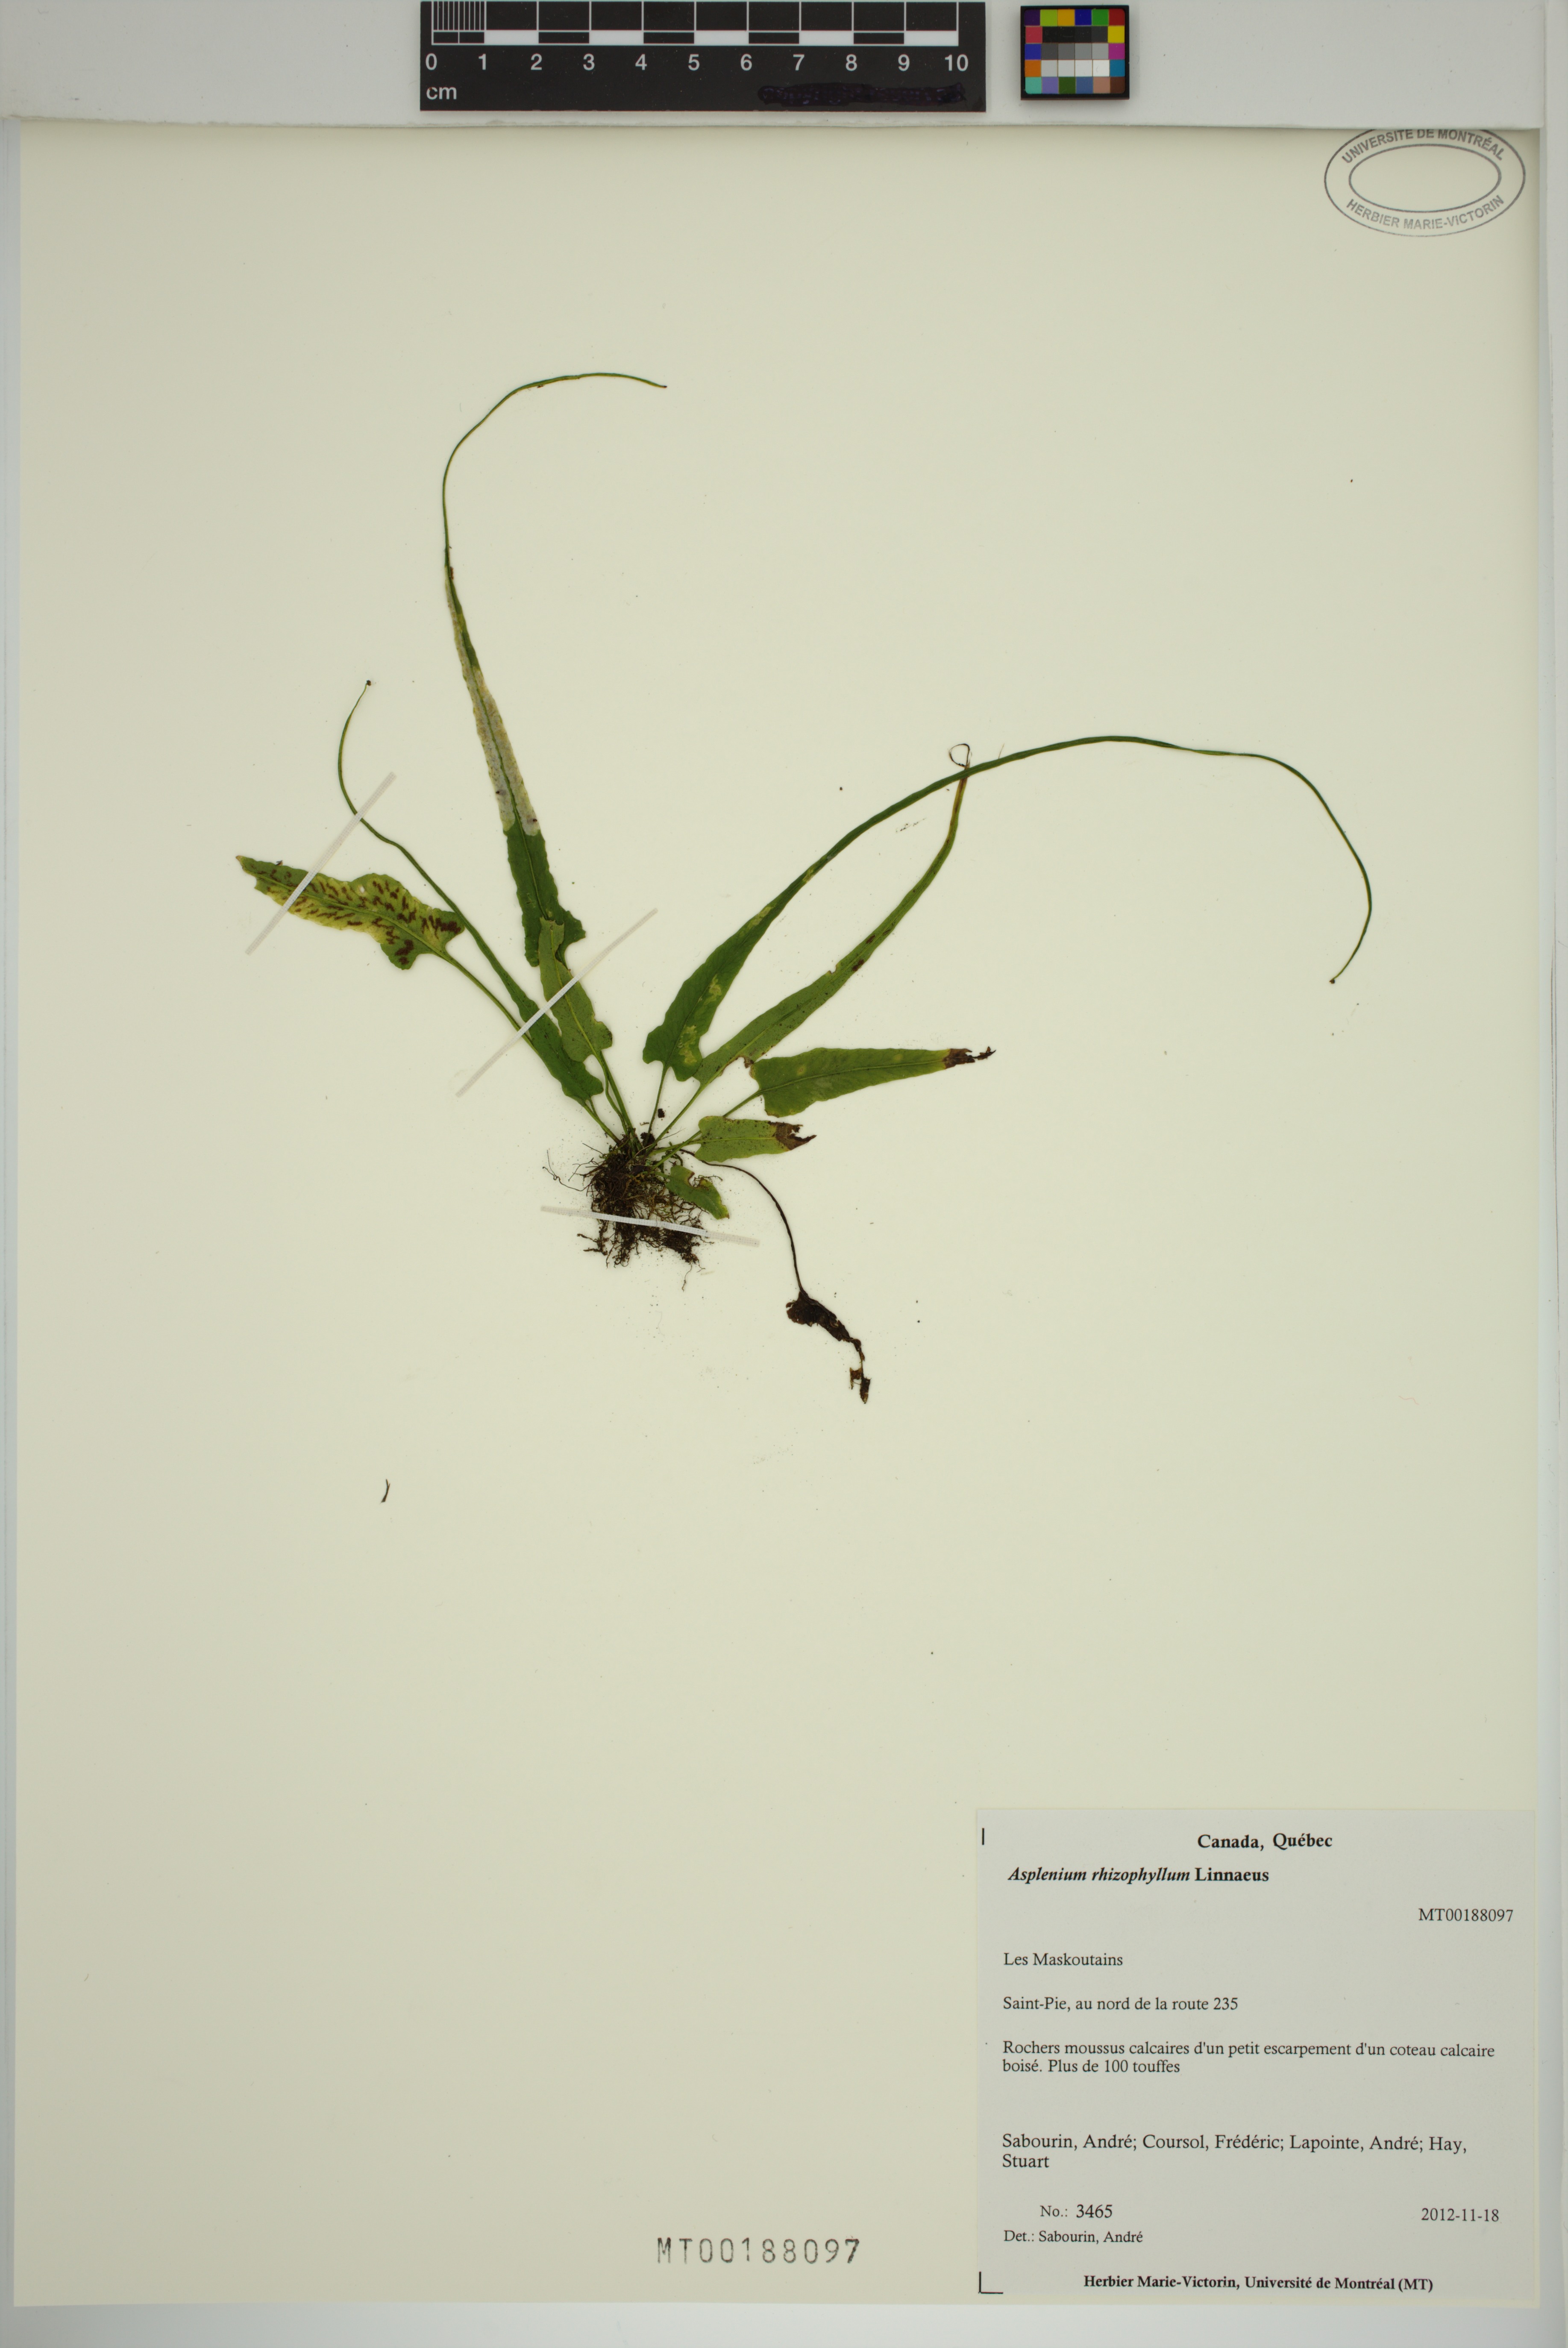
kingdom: Plantae
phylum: Tracheophyta
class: Polypodiopsida
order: Polypodiales
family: Aspleniaceae
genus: Asplenium
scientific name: Asplenium rhizophyllum
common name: Walking fern
